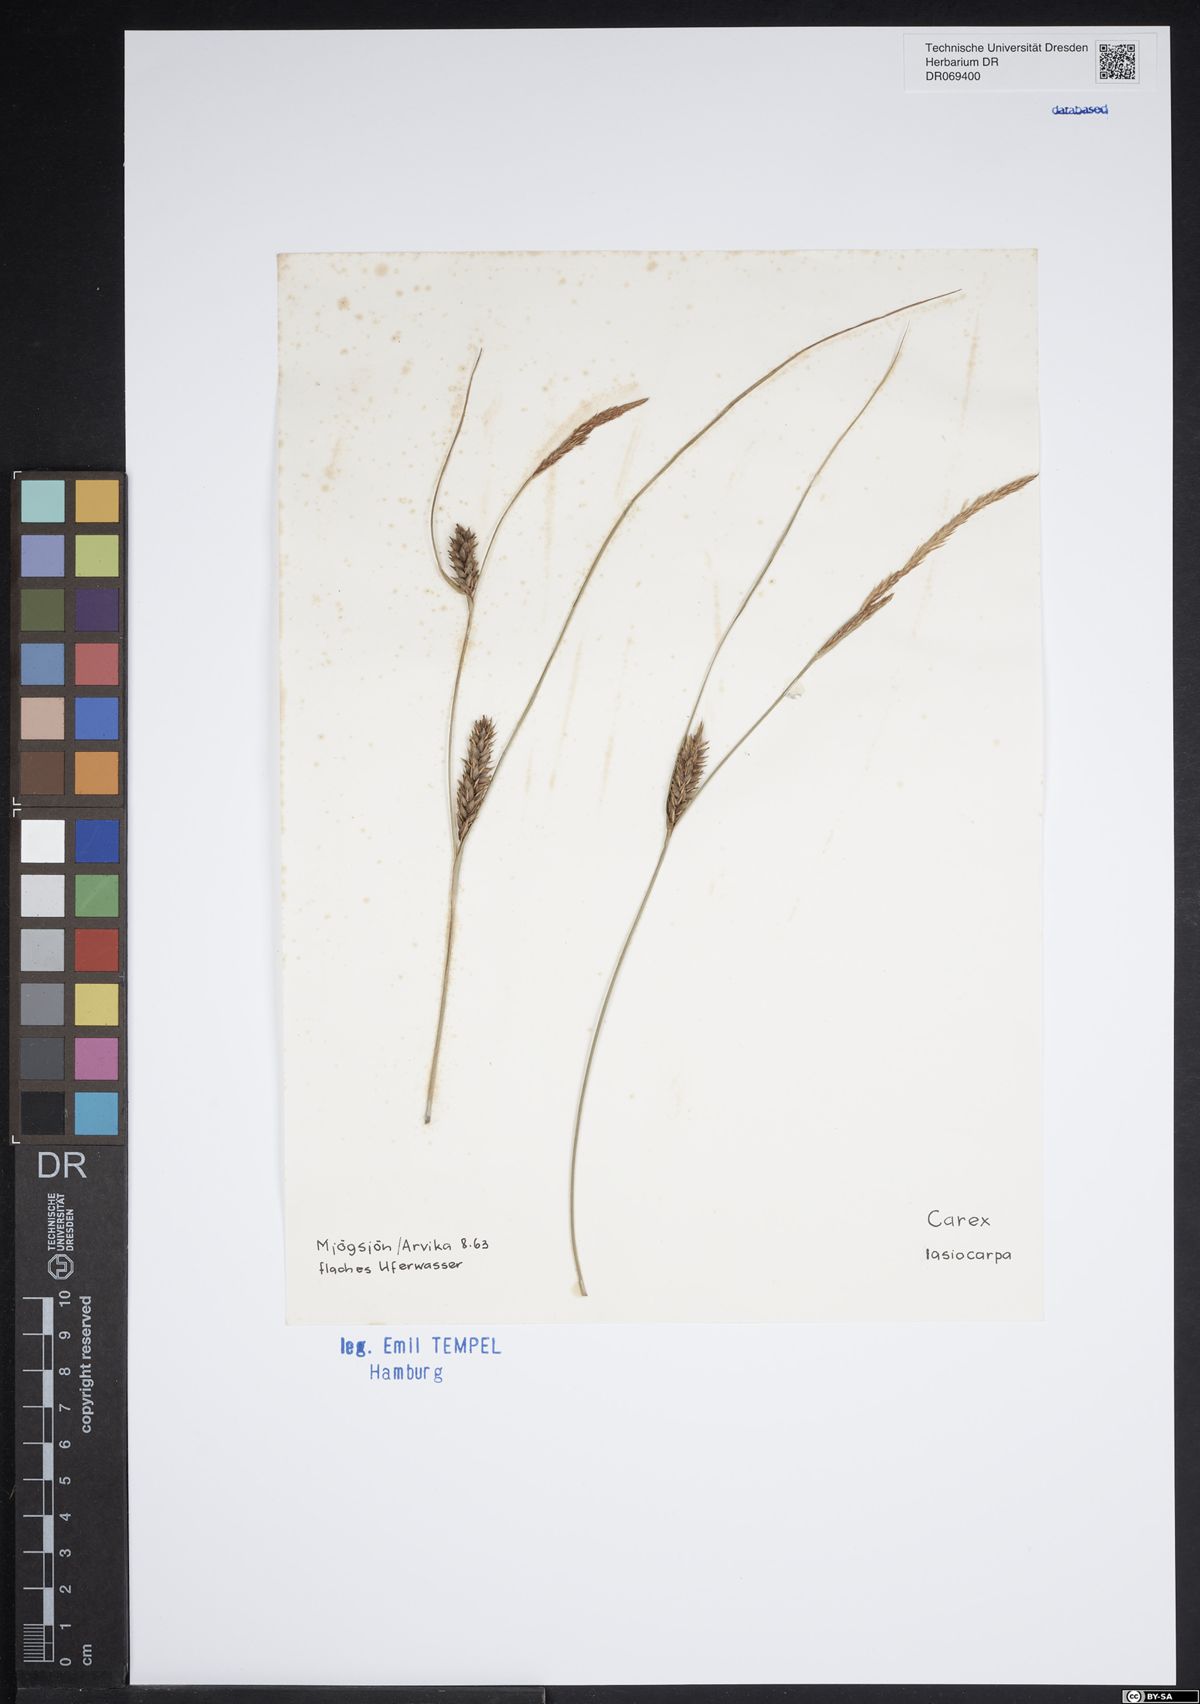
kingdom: Plantae
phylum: Tracheophyta
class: Liliopsida
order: Poales
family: Cyperaceae
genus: Carex
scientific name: Carex lasiocarpa
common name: Slender sedge
